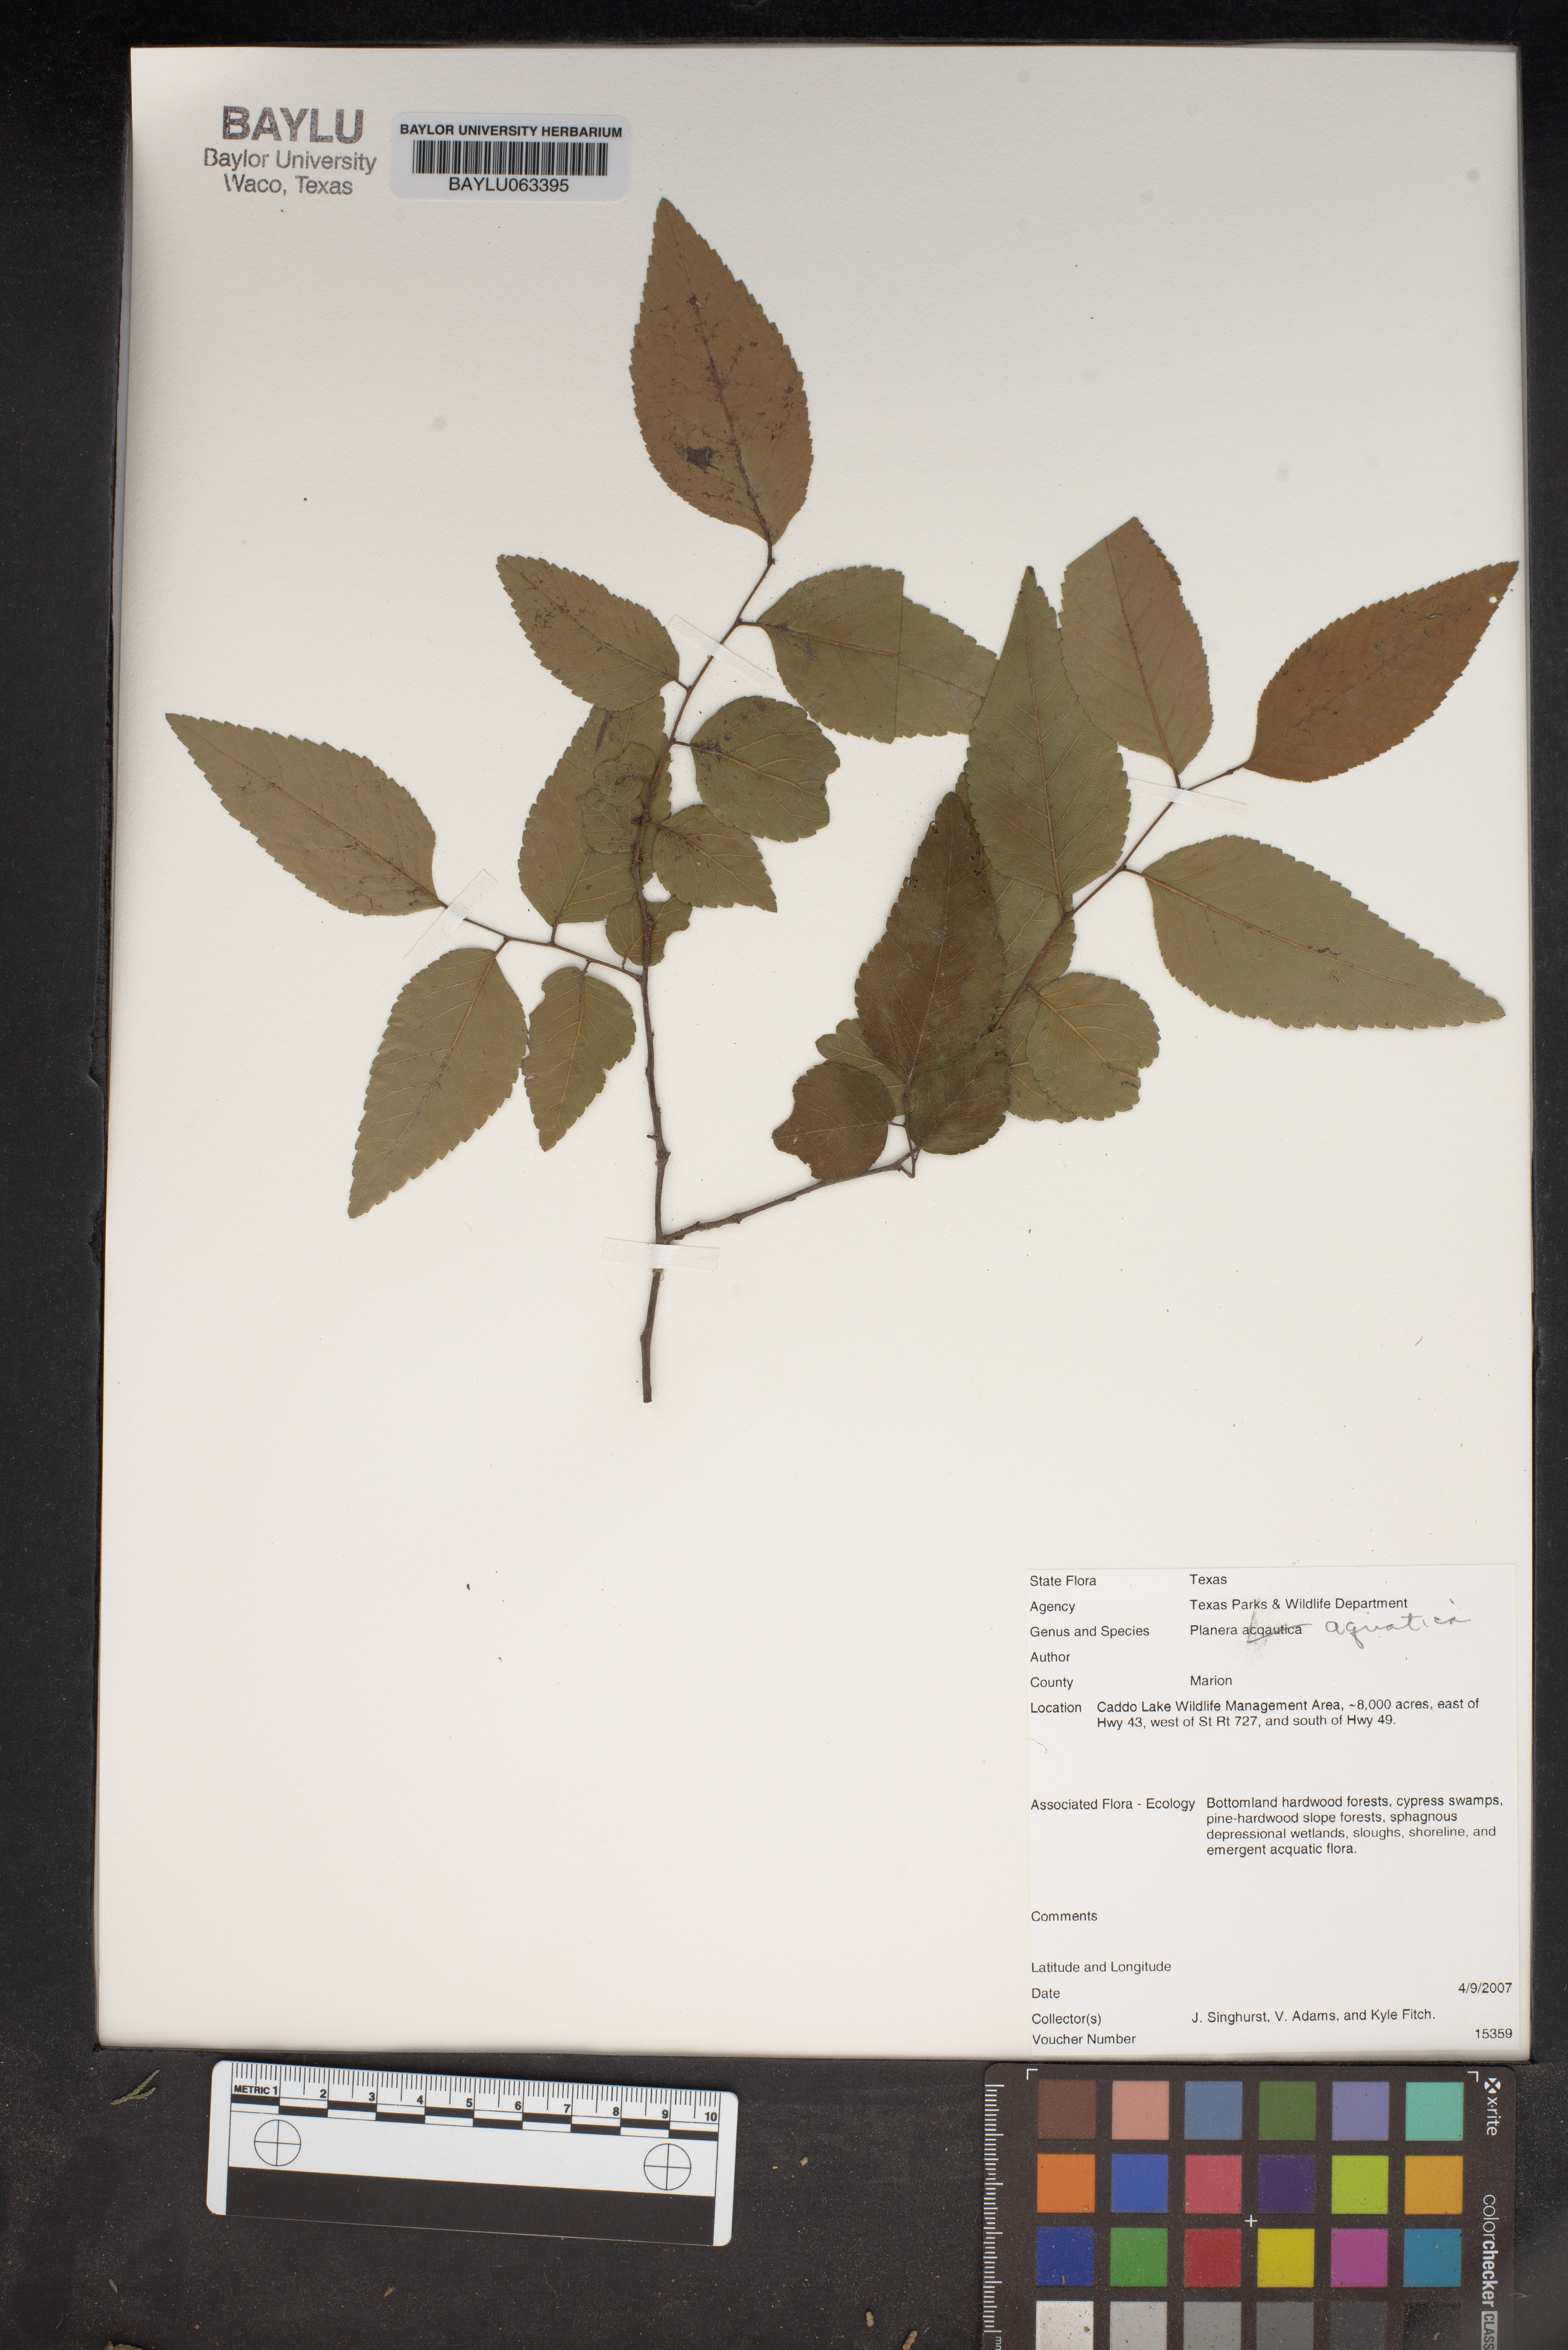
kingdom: Plantae
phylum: Tracheophyta
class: Magnoliopsida
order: Rosales
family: Ulmaceae
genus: Planera
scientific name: Planera aquatica
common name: Water-elm
